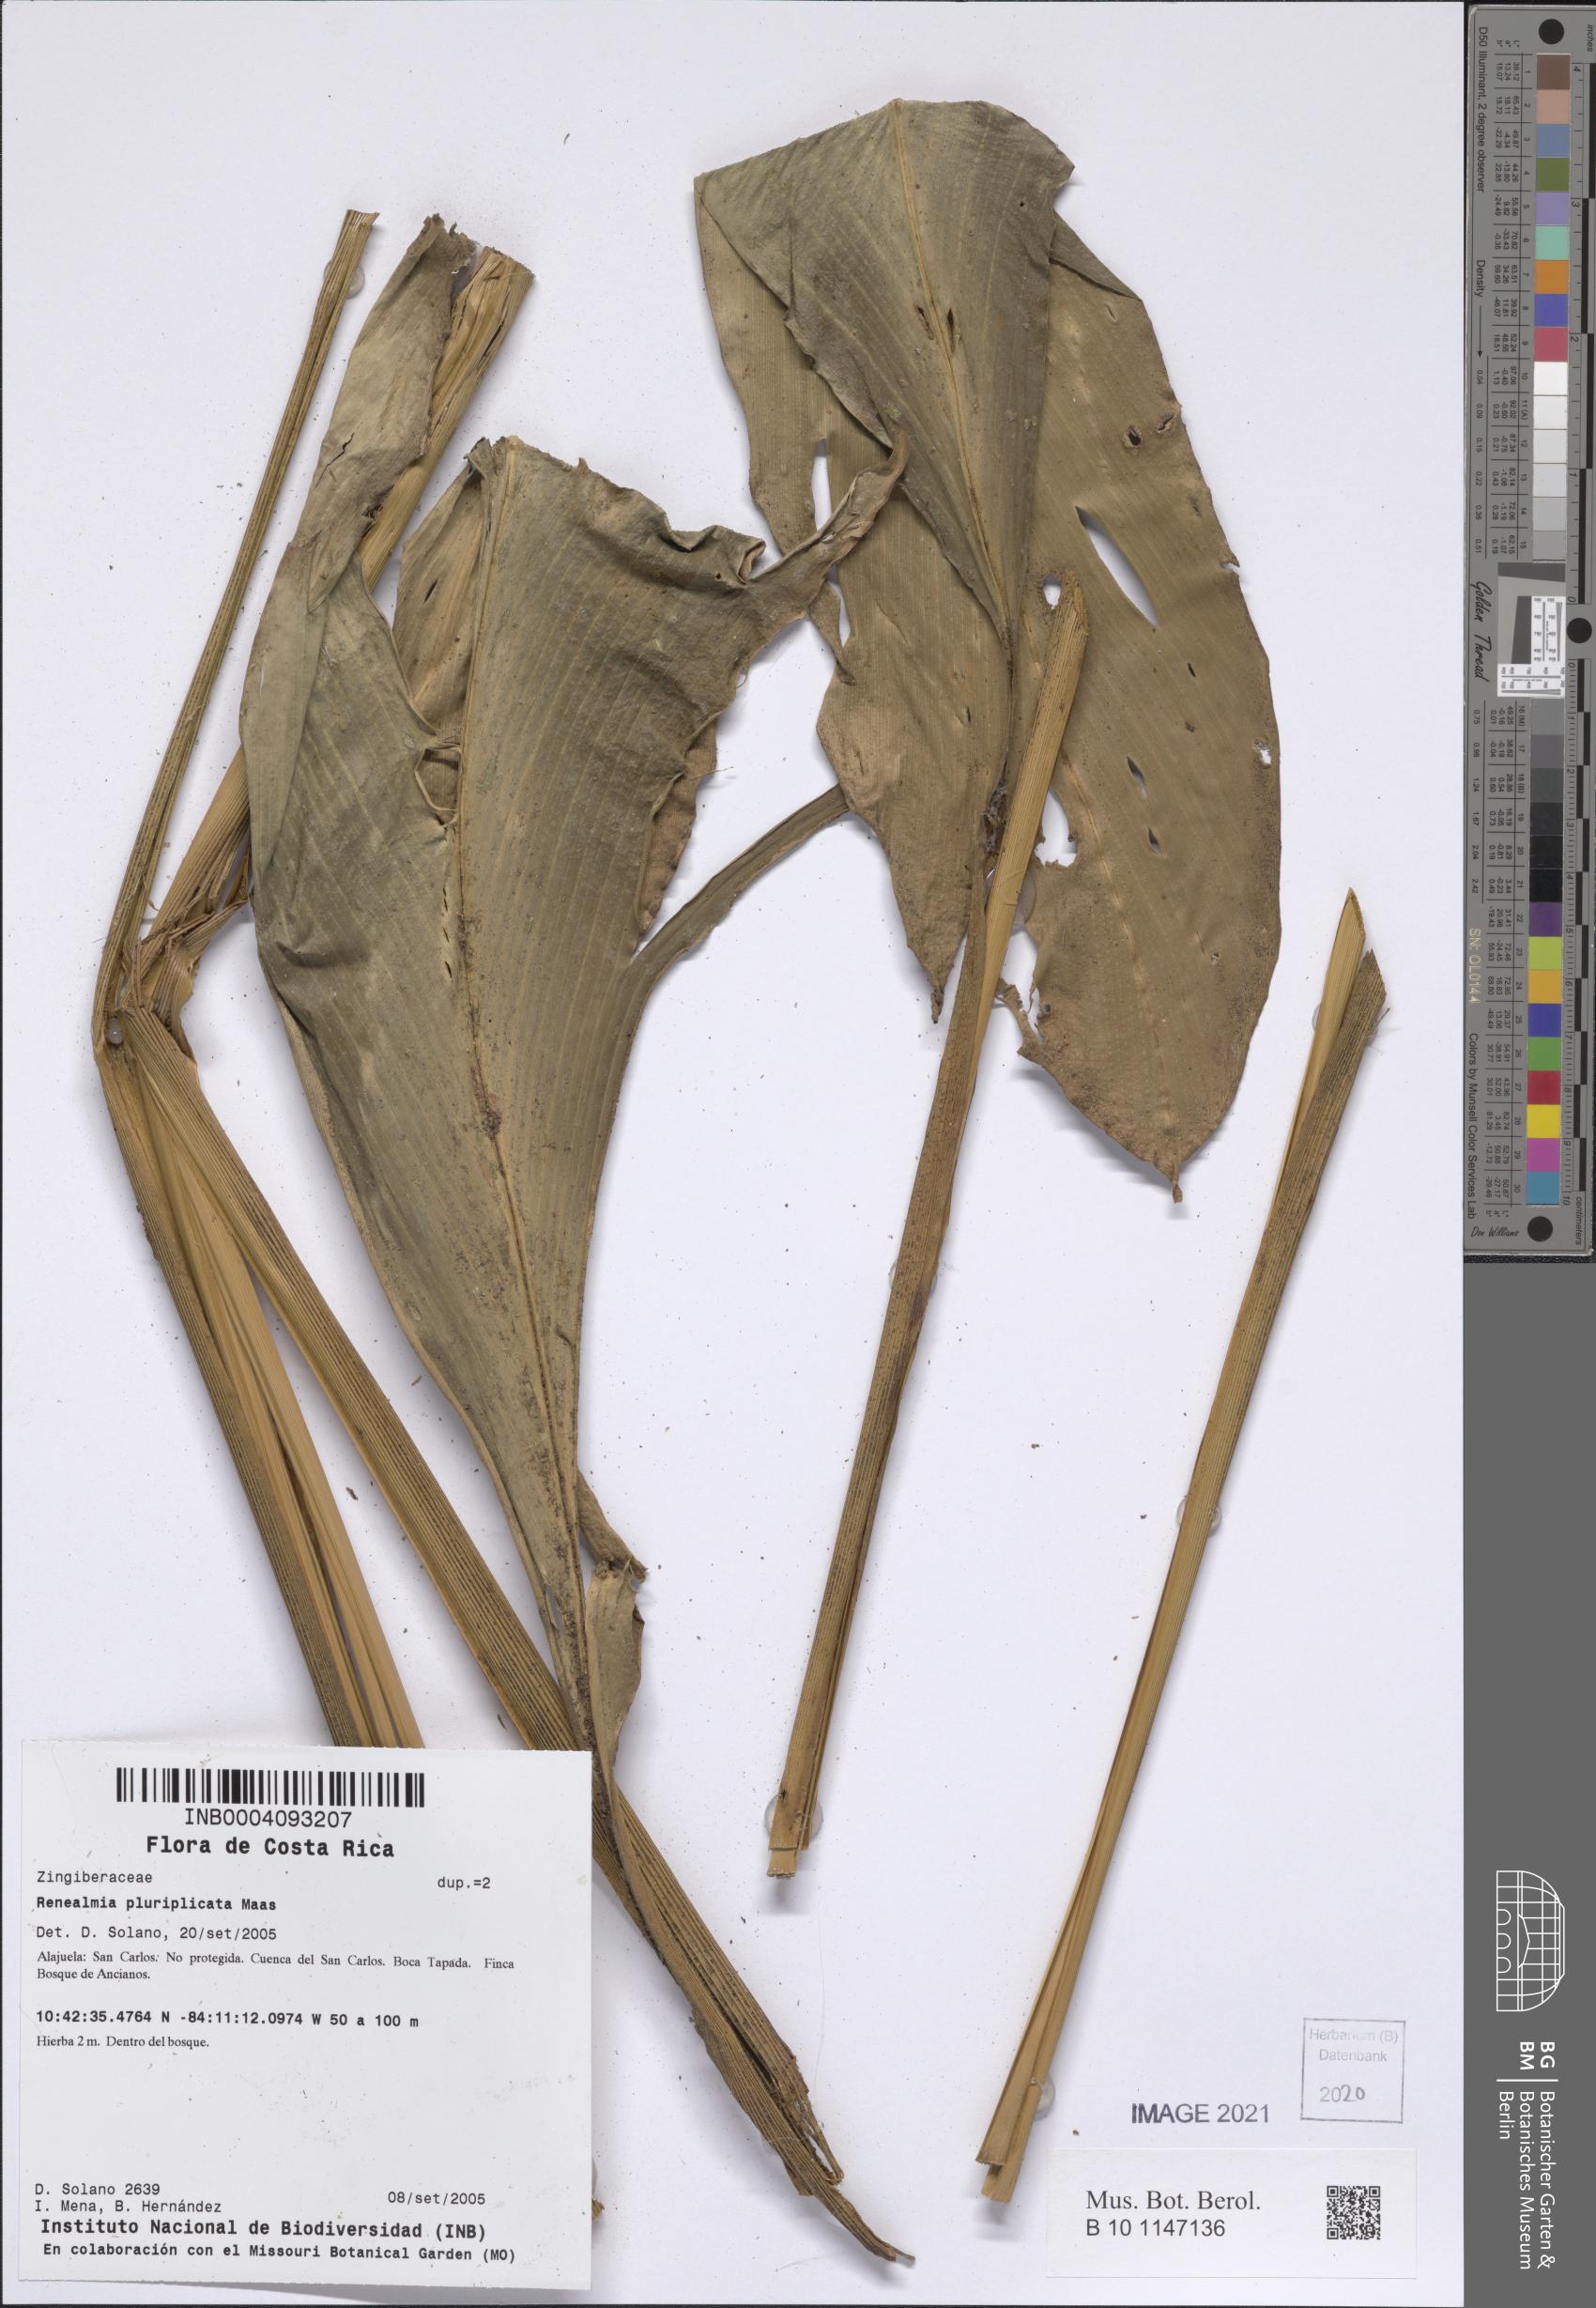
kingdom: Plantae
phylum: Tracheophyta
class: Liliopsida
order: Zingiberales
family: Zingiberaceae
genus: Renealmia
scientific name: Renealmia pluriplicata
